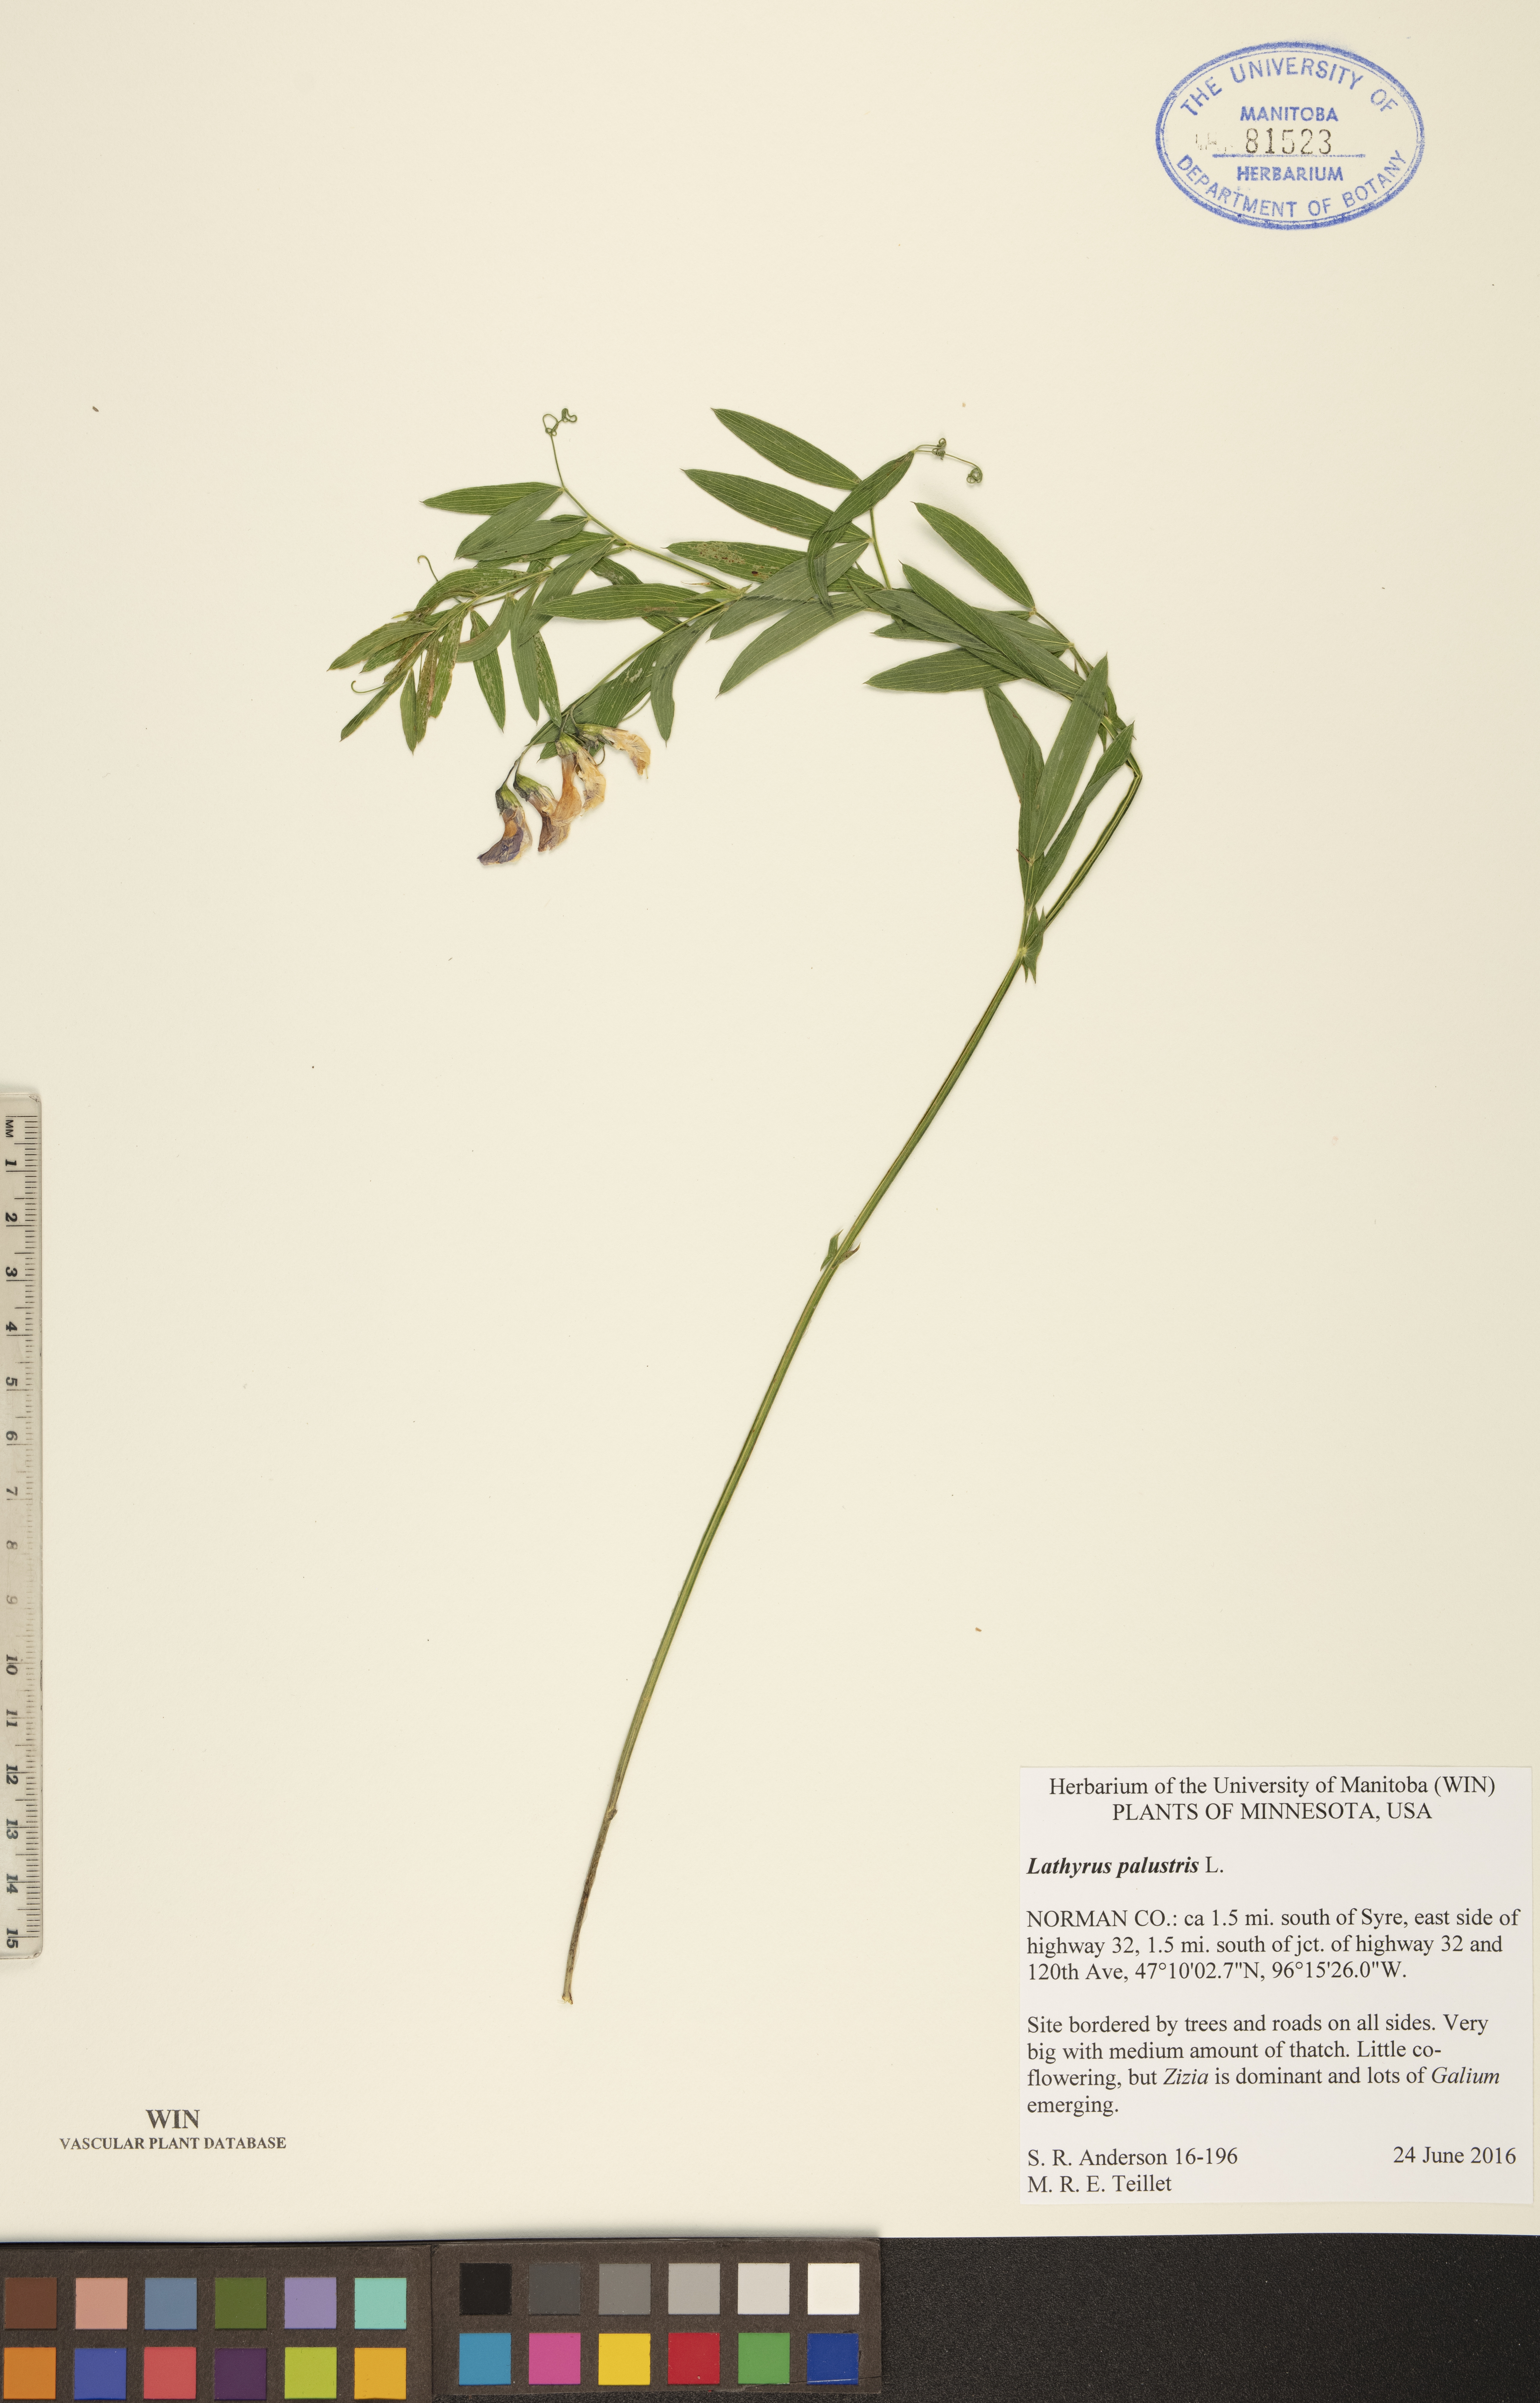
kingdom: Plantae
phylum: Tracheophyta
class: Magnoliopsida
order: Fabales
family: Fabaceae
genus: Lathyrus
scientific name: Lathyrus palustris
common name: Marsh pea
